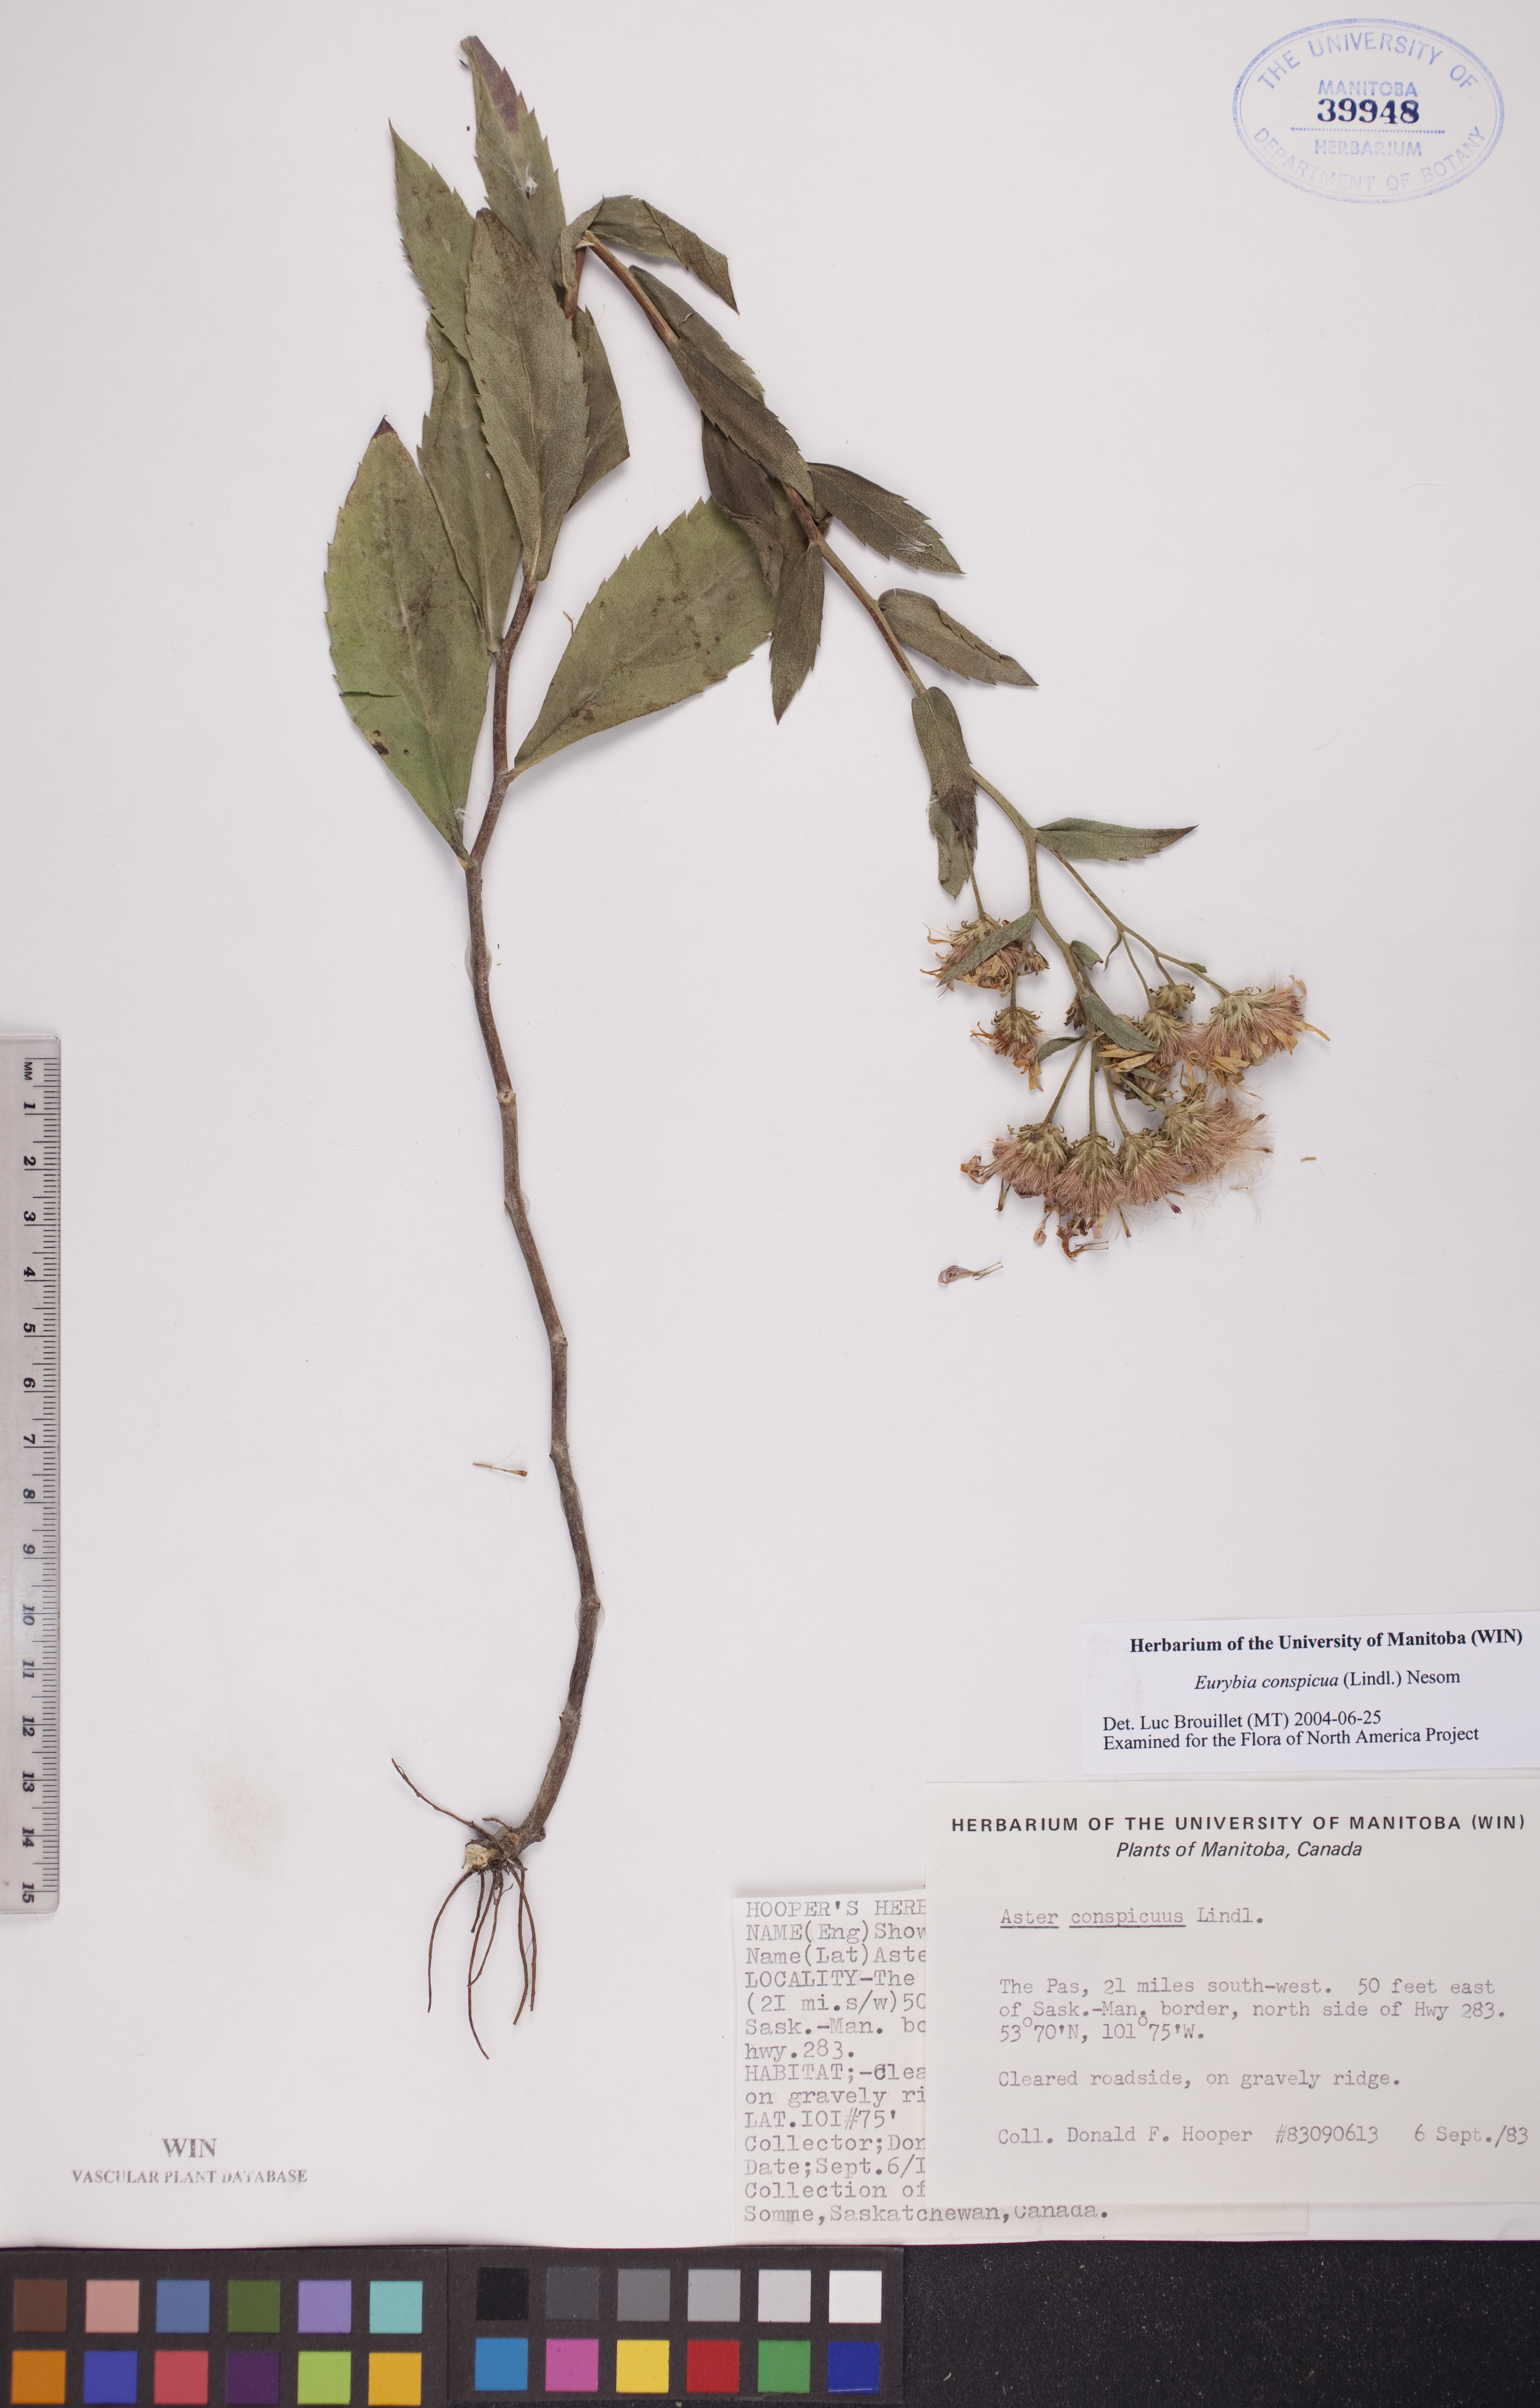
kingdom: Plantae
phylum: Tracheophyta
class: Magnoliopsida
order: Asterales
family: Asteraceae
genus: Eurybia
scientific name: Eurybia conspicua
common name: Showy aster
